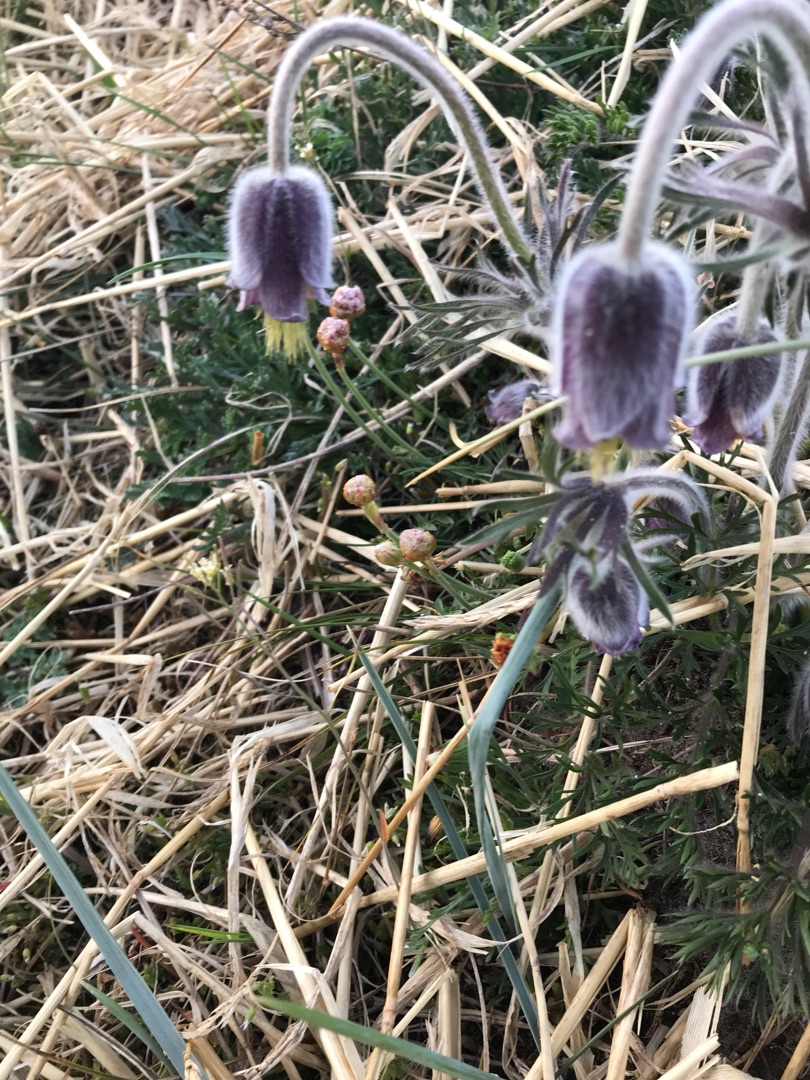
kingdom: Plantae
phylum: Tracheophyta
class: Magnoliopsida
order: Ranunculales
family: Ranunculaceae
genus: Pulsatilla
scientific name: Pulsatilla pratensis
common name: Nikkende kobjælde
